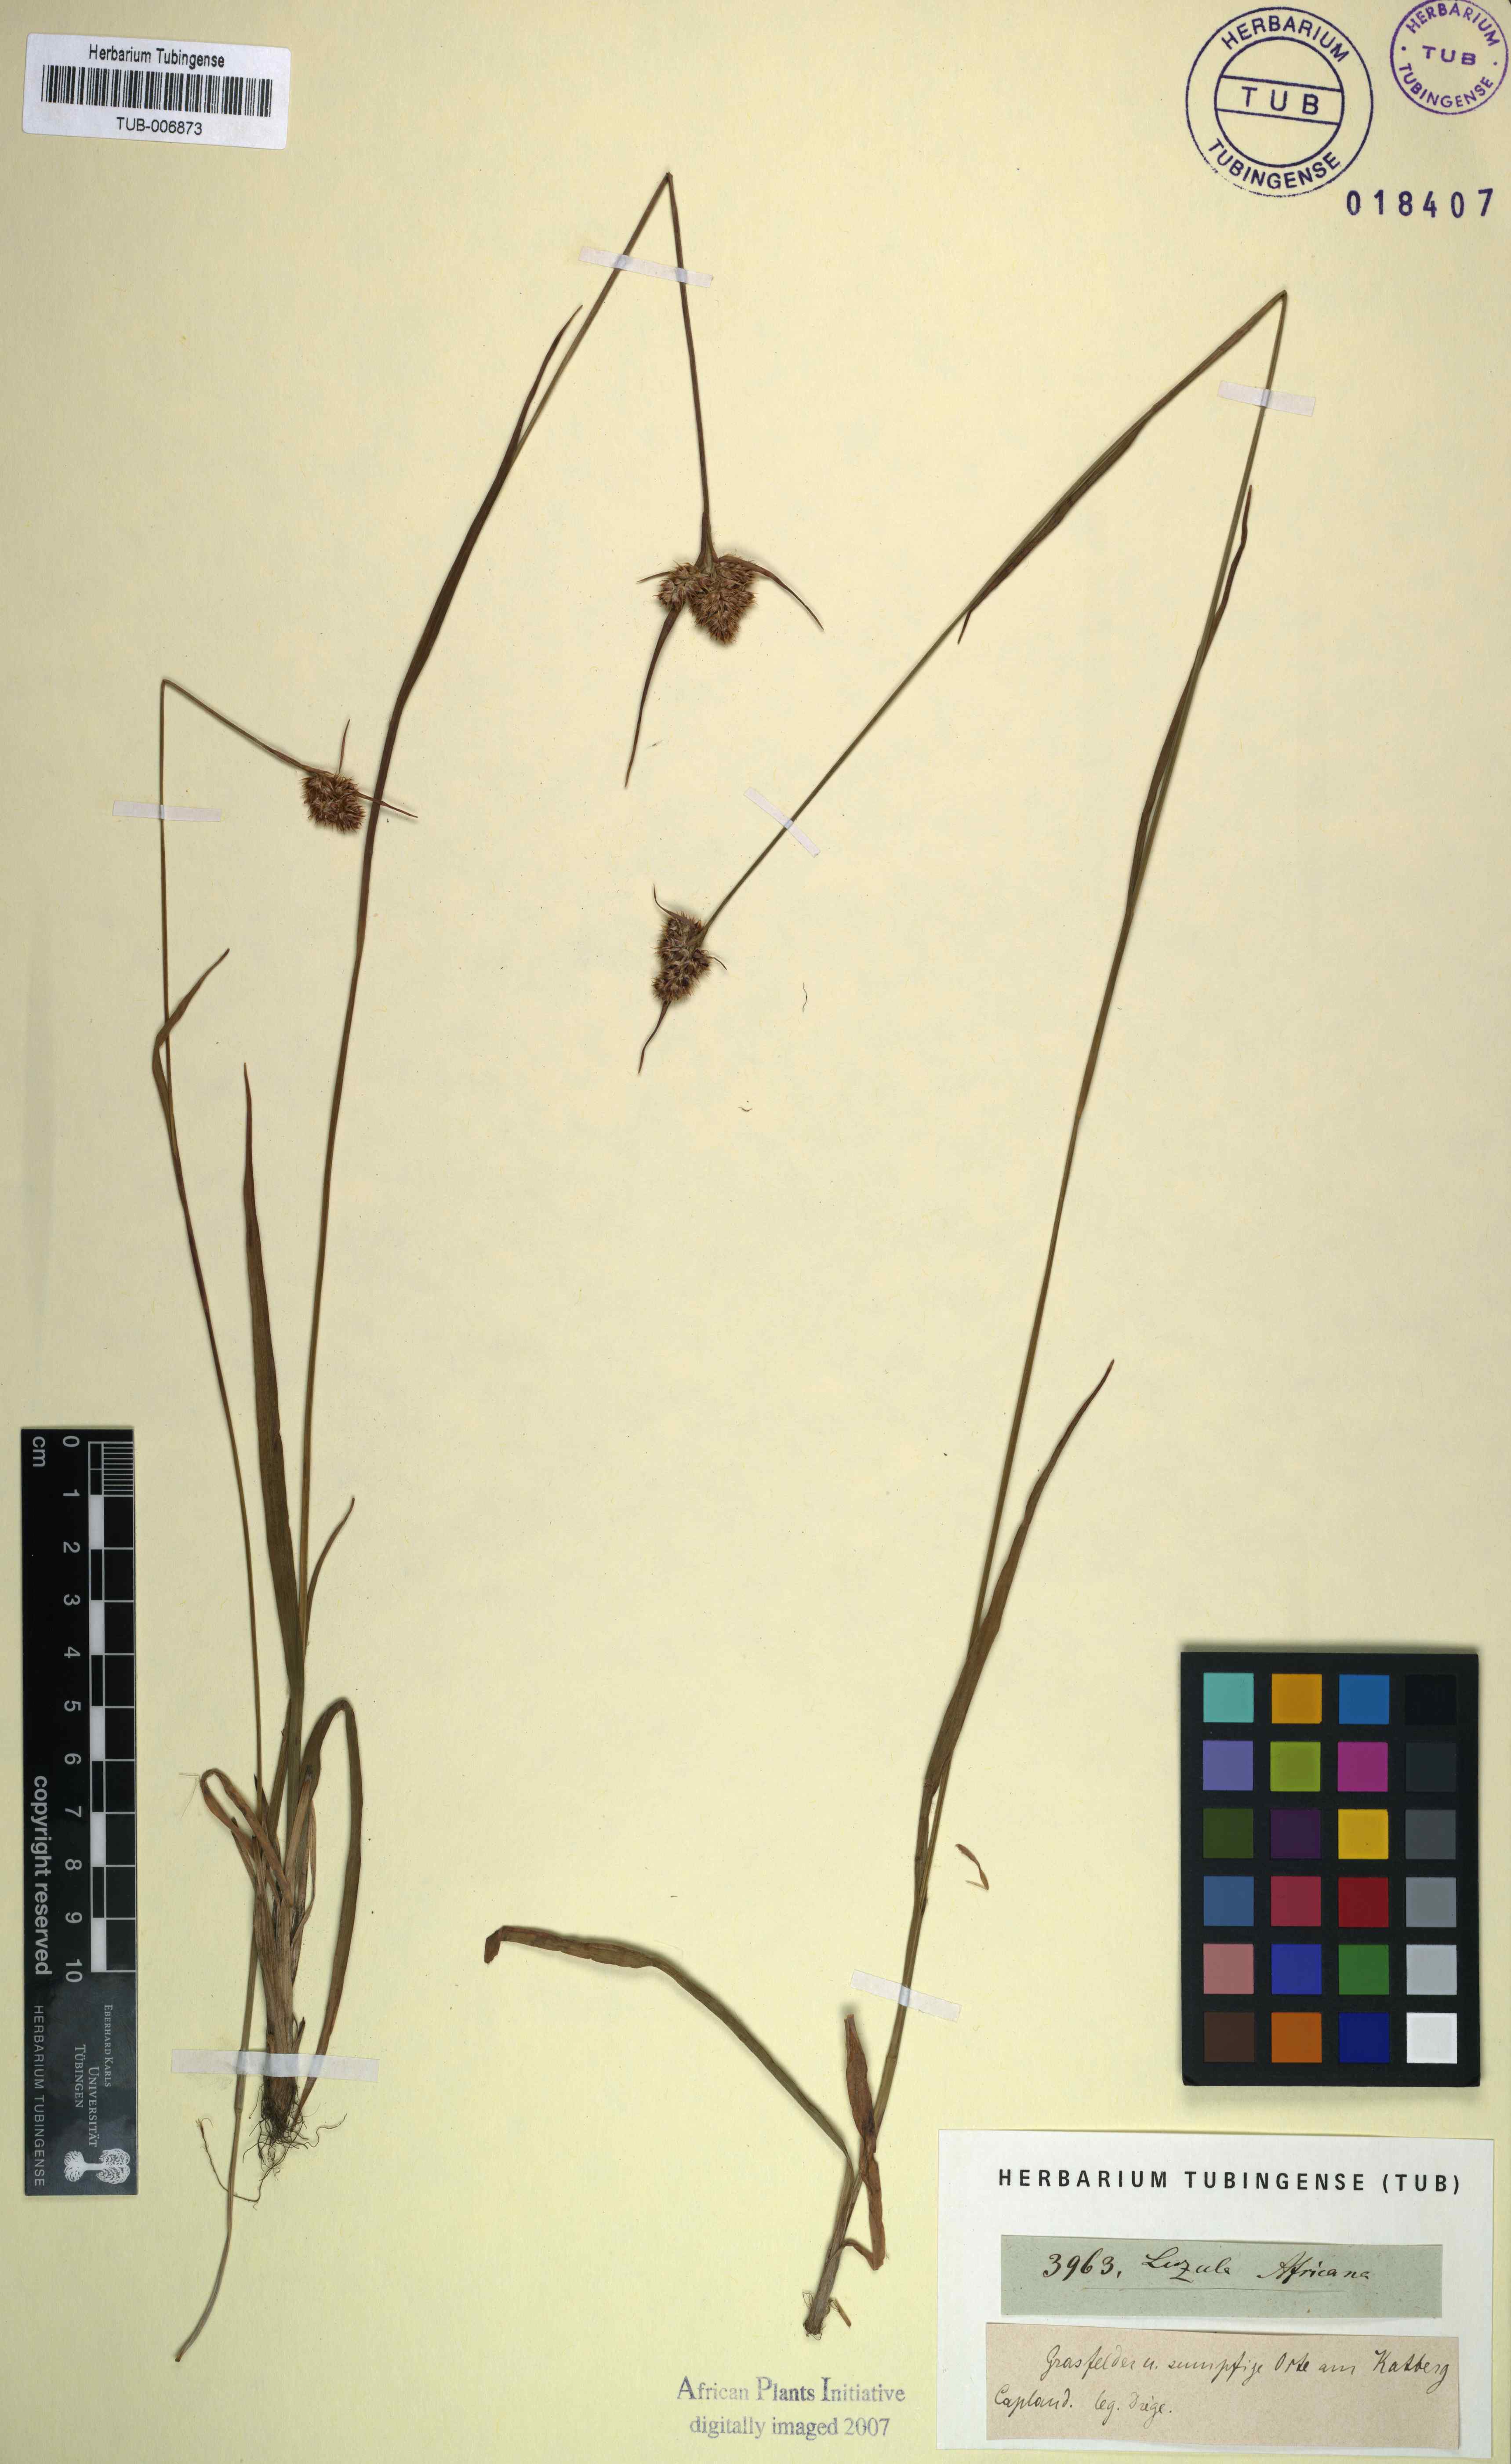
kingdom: Plantae
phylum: Tracheophyta
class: Liliopsida
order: Poales
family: Juncaceae
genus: Luzula
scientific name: Luzula africana
